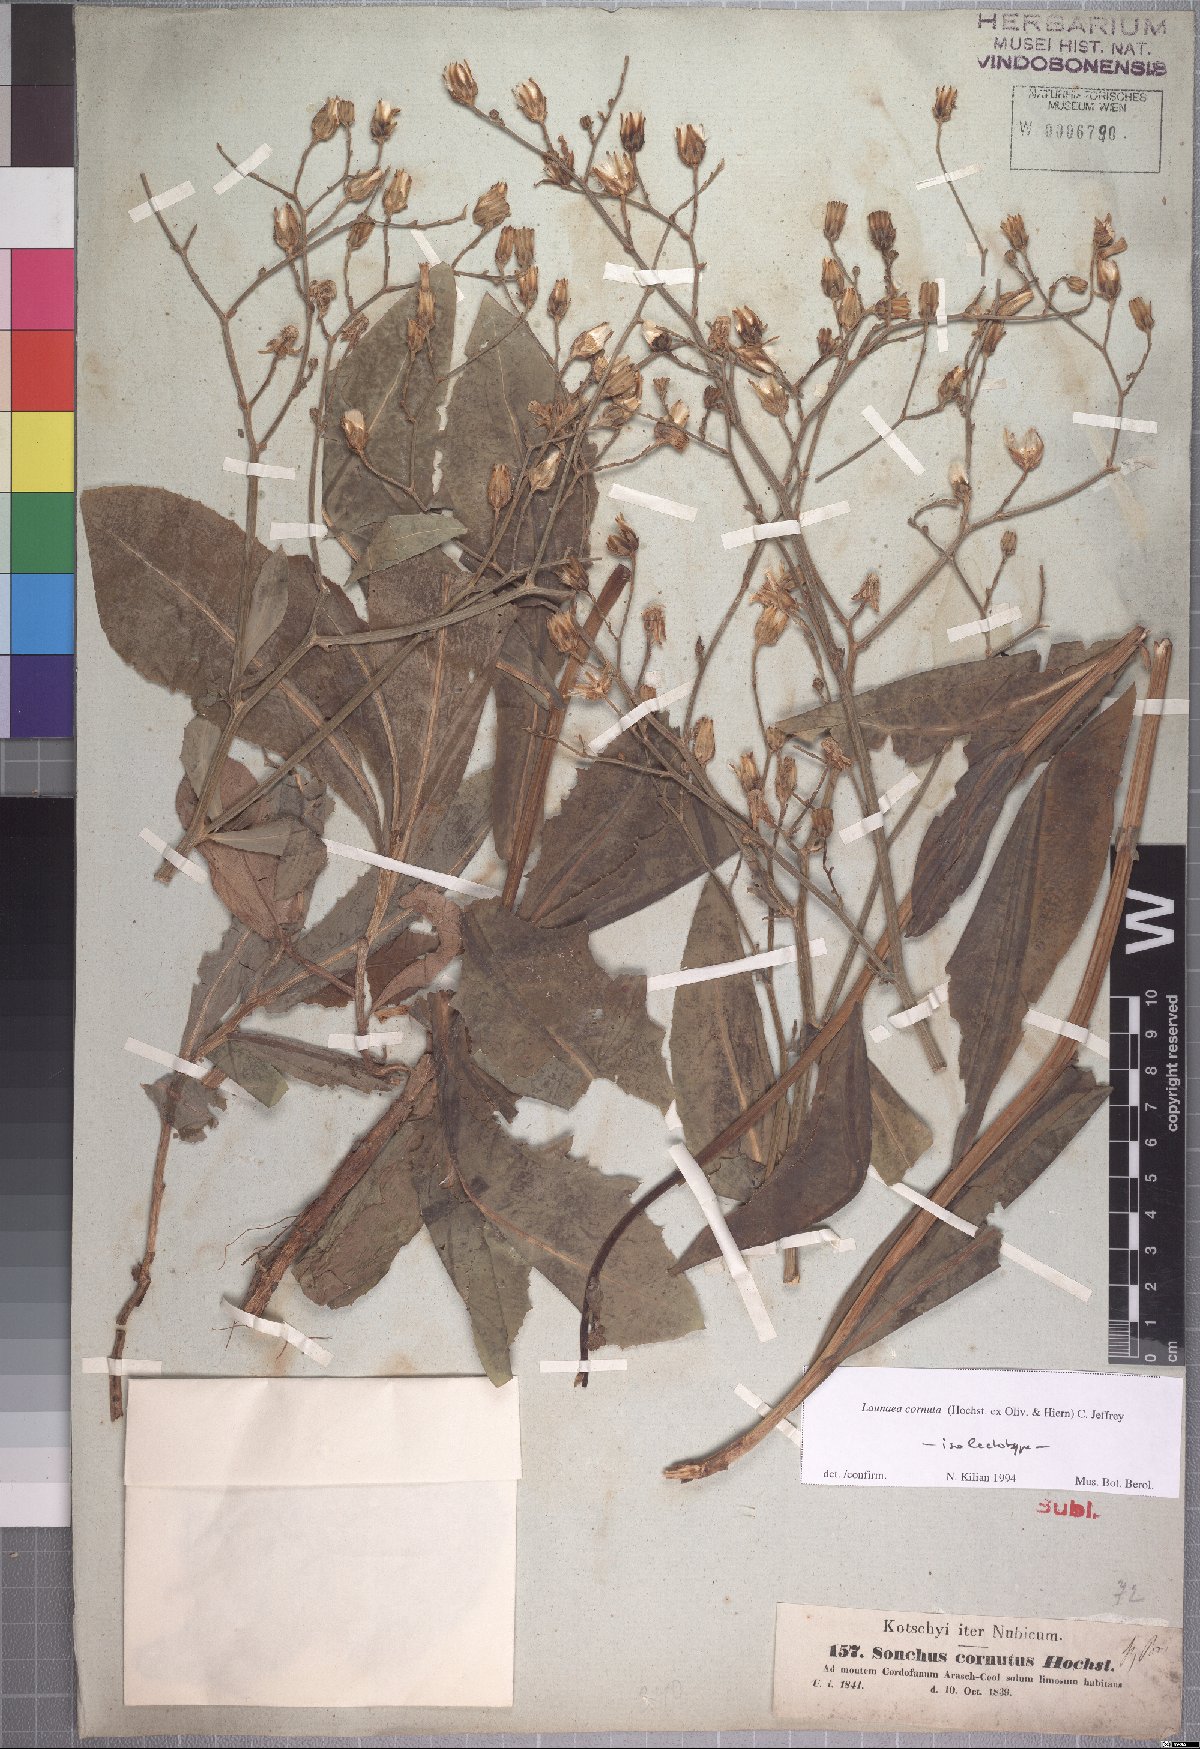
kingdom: Plantae
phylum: Tracheophyta
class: Magnoliopsida
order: Asterales
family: Asteraceae
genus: Launaea
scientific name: Launaea cornuta
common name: Bitter-lettuce
